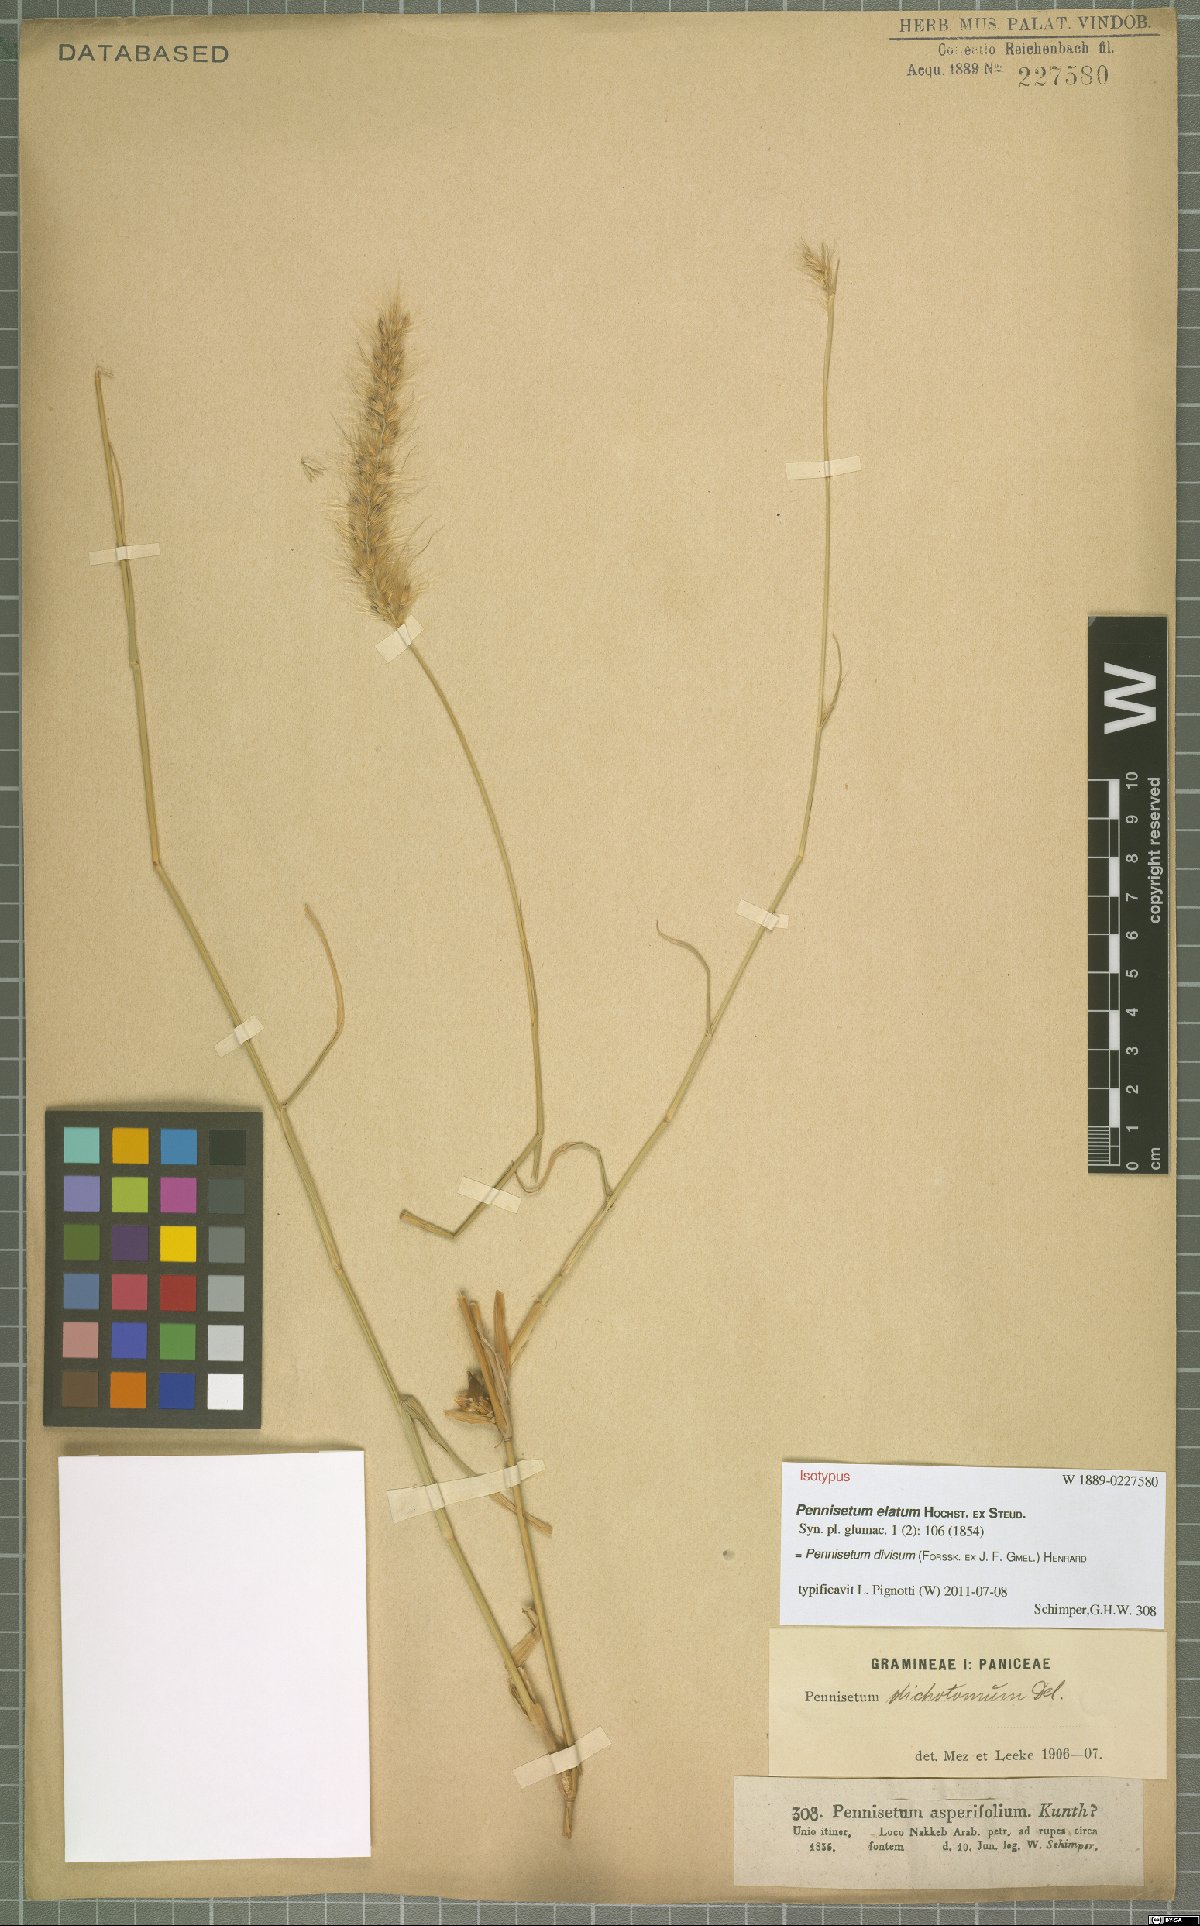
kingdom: Plantae
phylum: Tracheophyta
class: Liliopsida
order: Poales
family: Poaceae
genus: Cenchrus
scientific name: Cenchrus divisus
